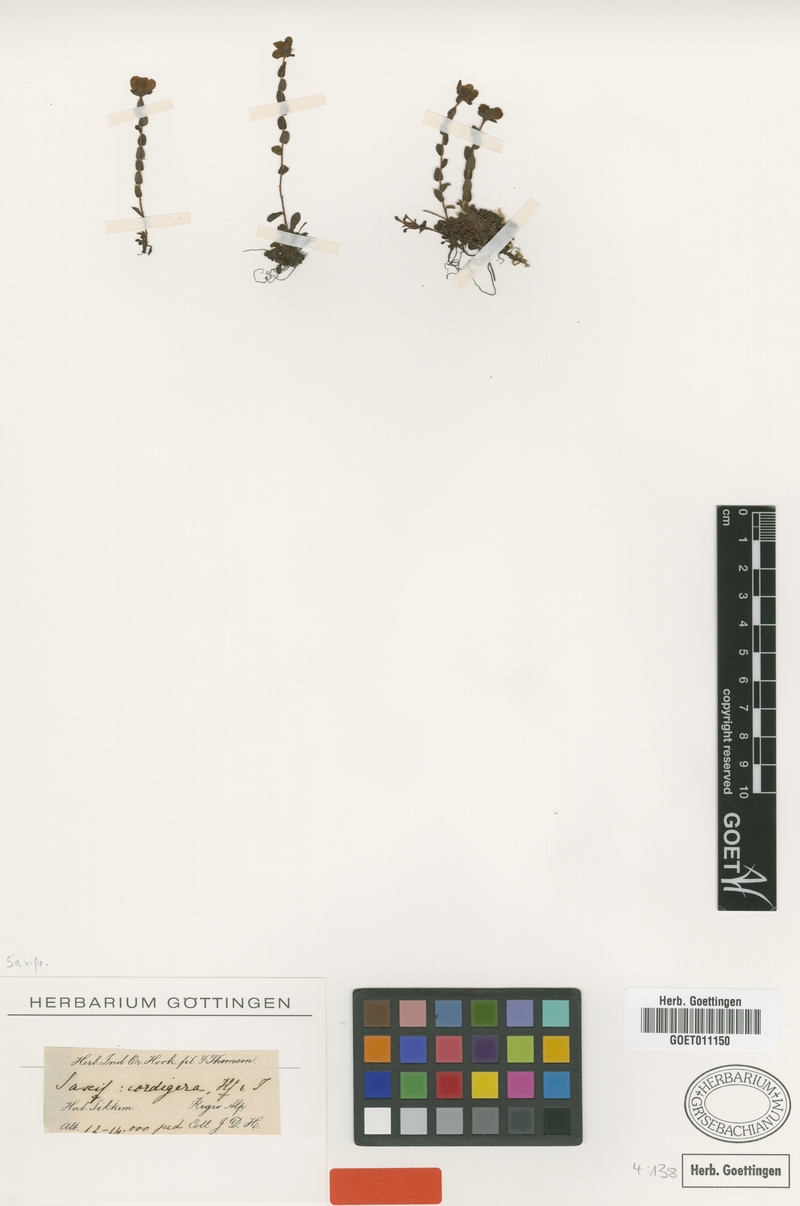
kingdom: Plantae
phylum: Tracheophyta
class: Magnoliopsida
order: Saxifragales
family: Saxifragaceae
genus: Saxifraga
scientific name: Saxifraga cordigera
